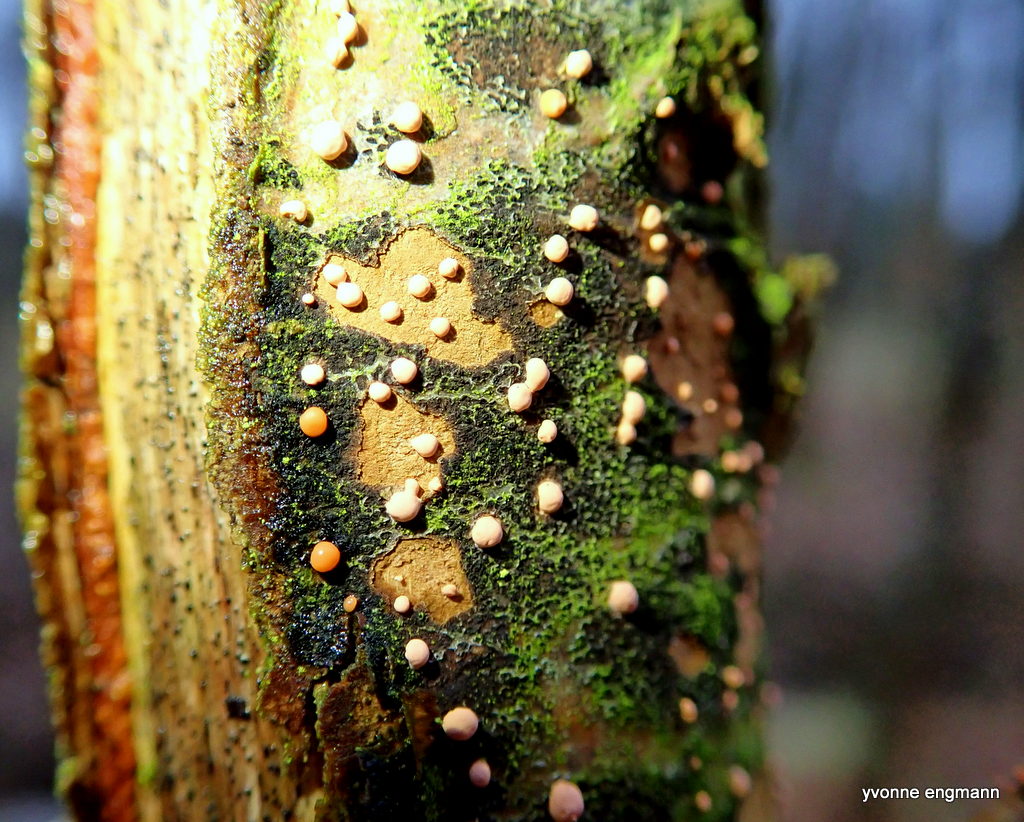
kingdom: Fungi
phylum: Ascomycota
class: Sordariomycetes
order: Hypocreales
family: Nectriaceae
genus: Nectria
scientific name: Nectria cinnabarina
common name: almindelig cinnobersvamp
